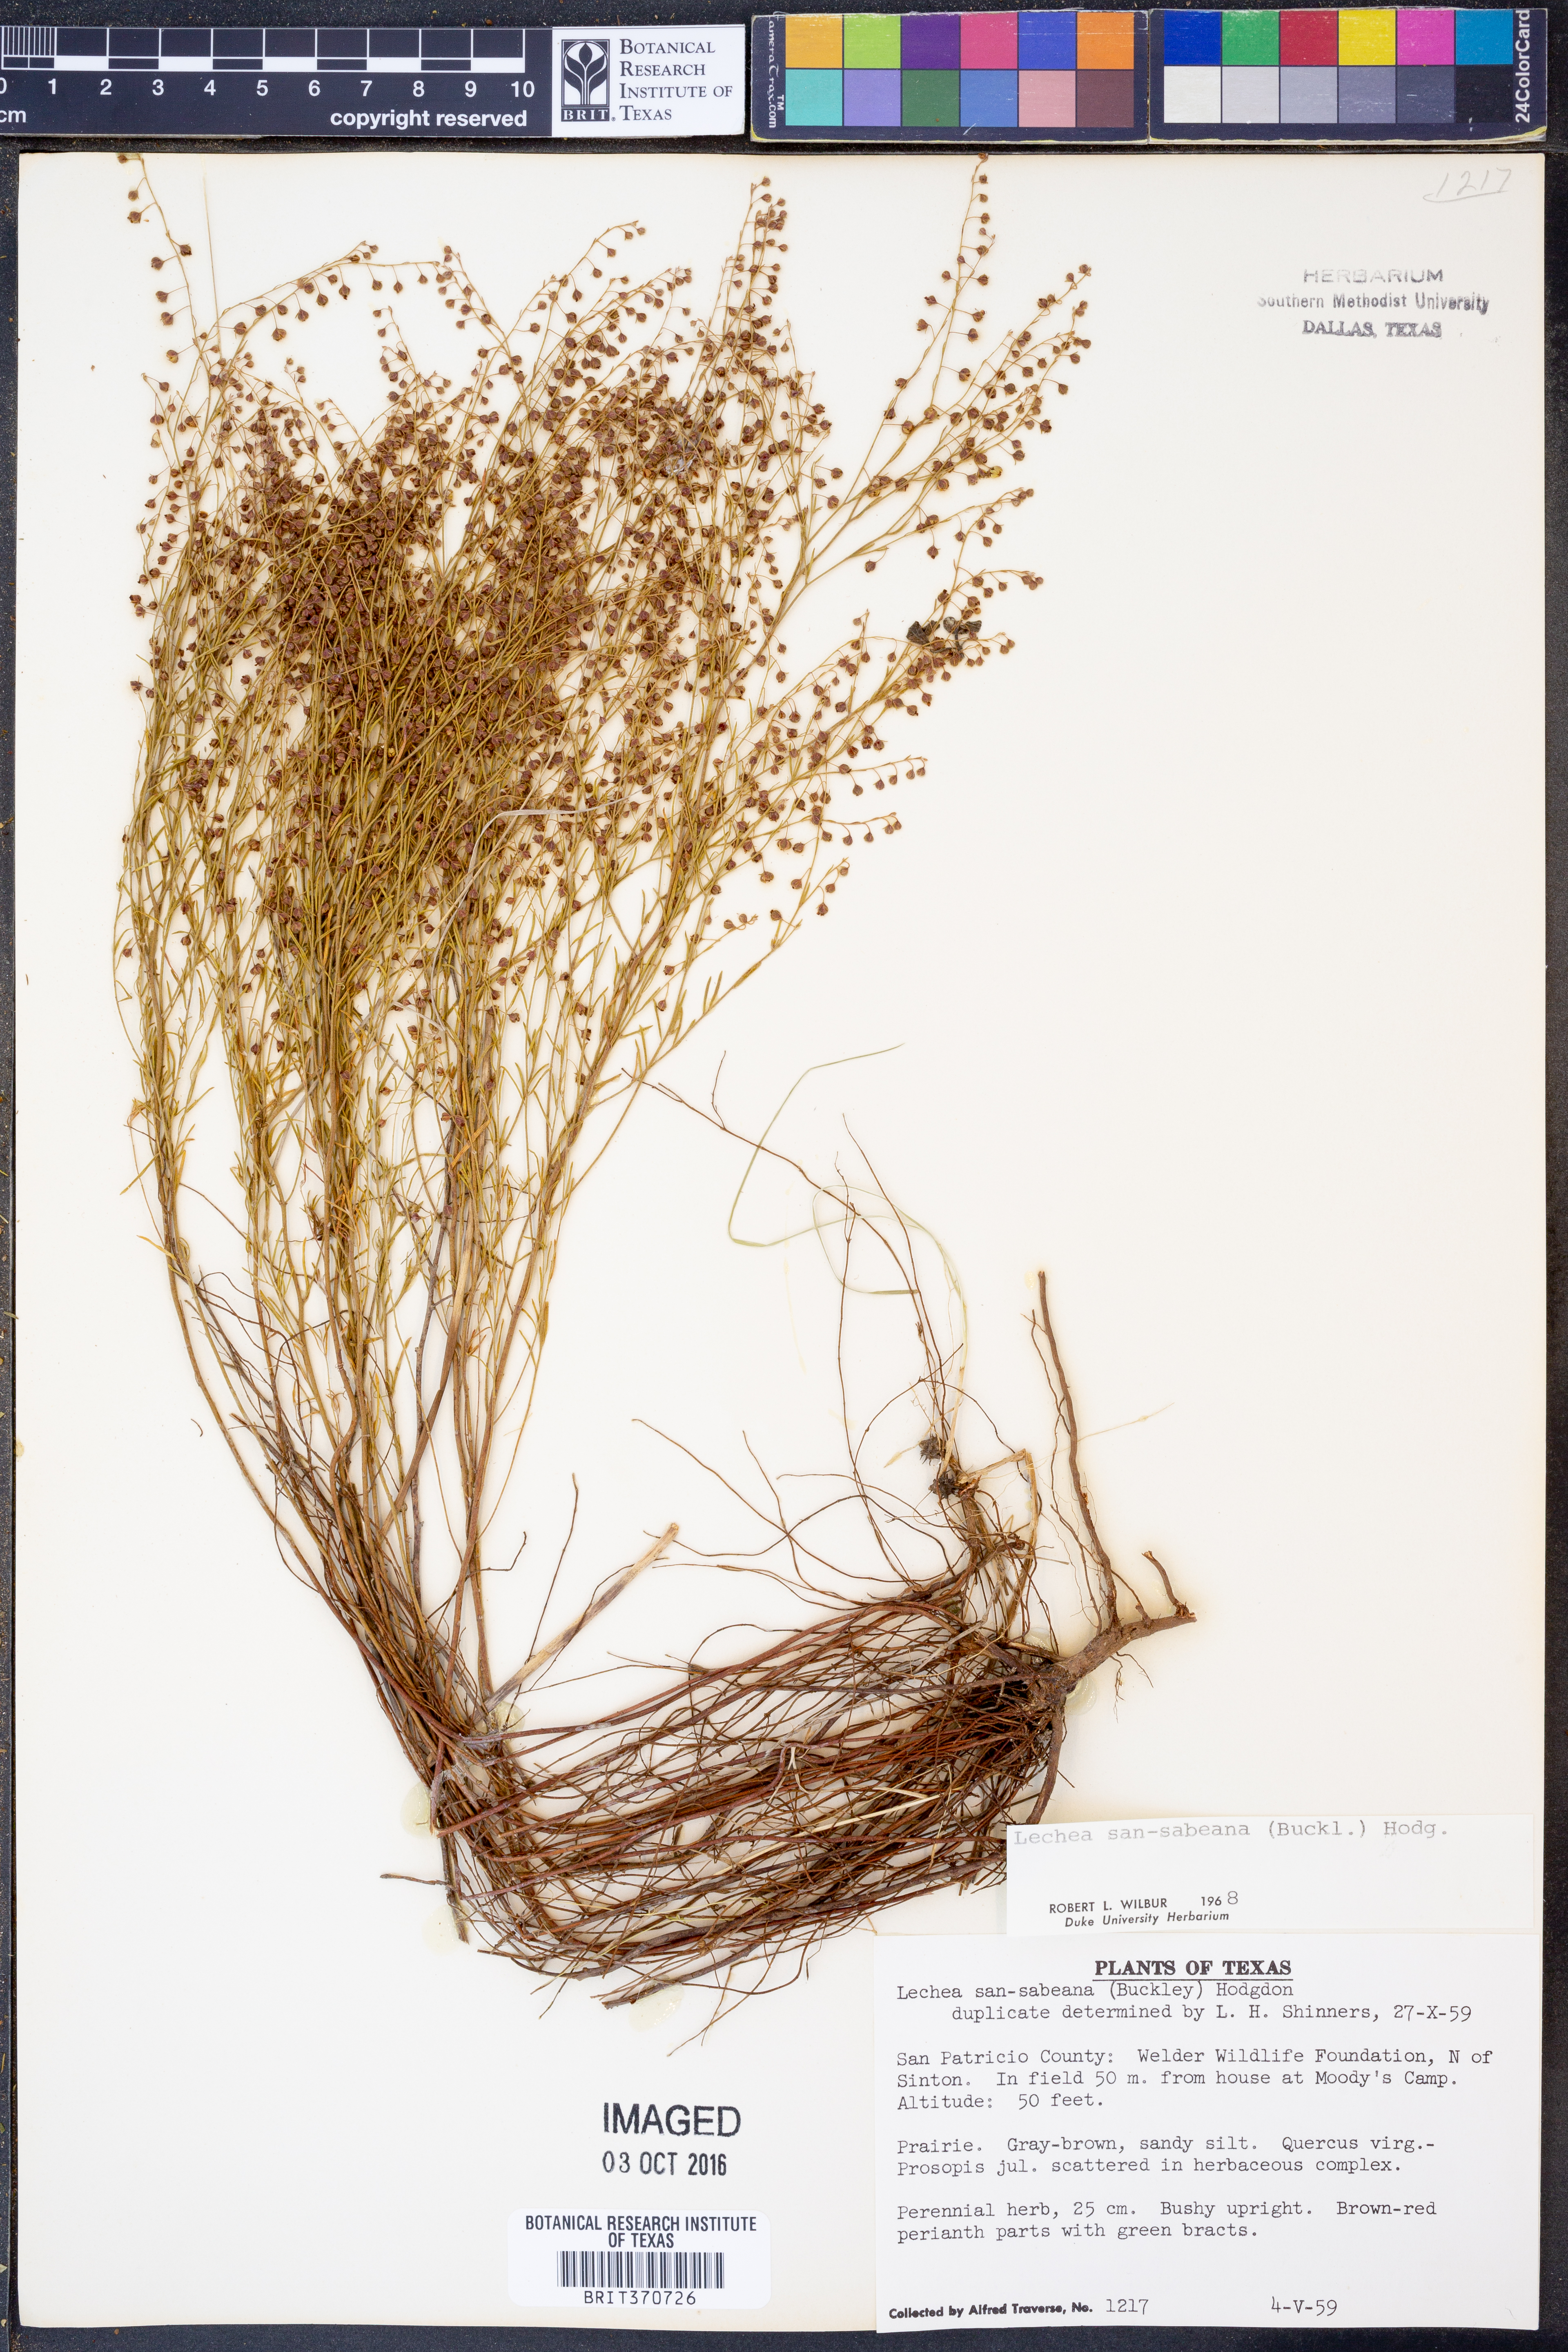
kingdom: Plantae
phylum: Tracheophyta
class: Magnoliopsida
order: Malvales
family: Cistaceae
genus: Lechea
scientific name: Lechea san-sabeana
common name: San saba pinweed
